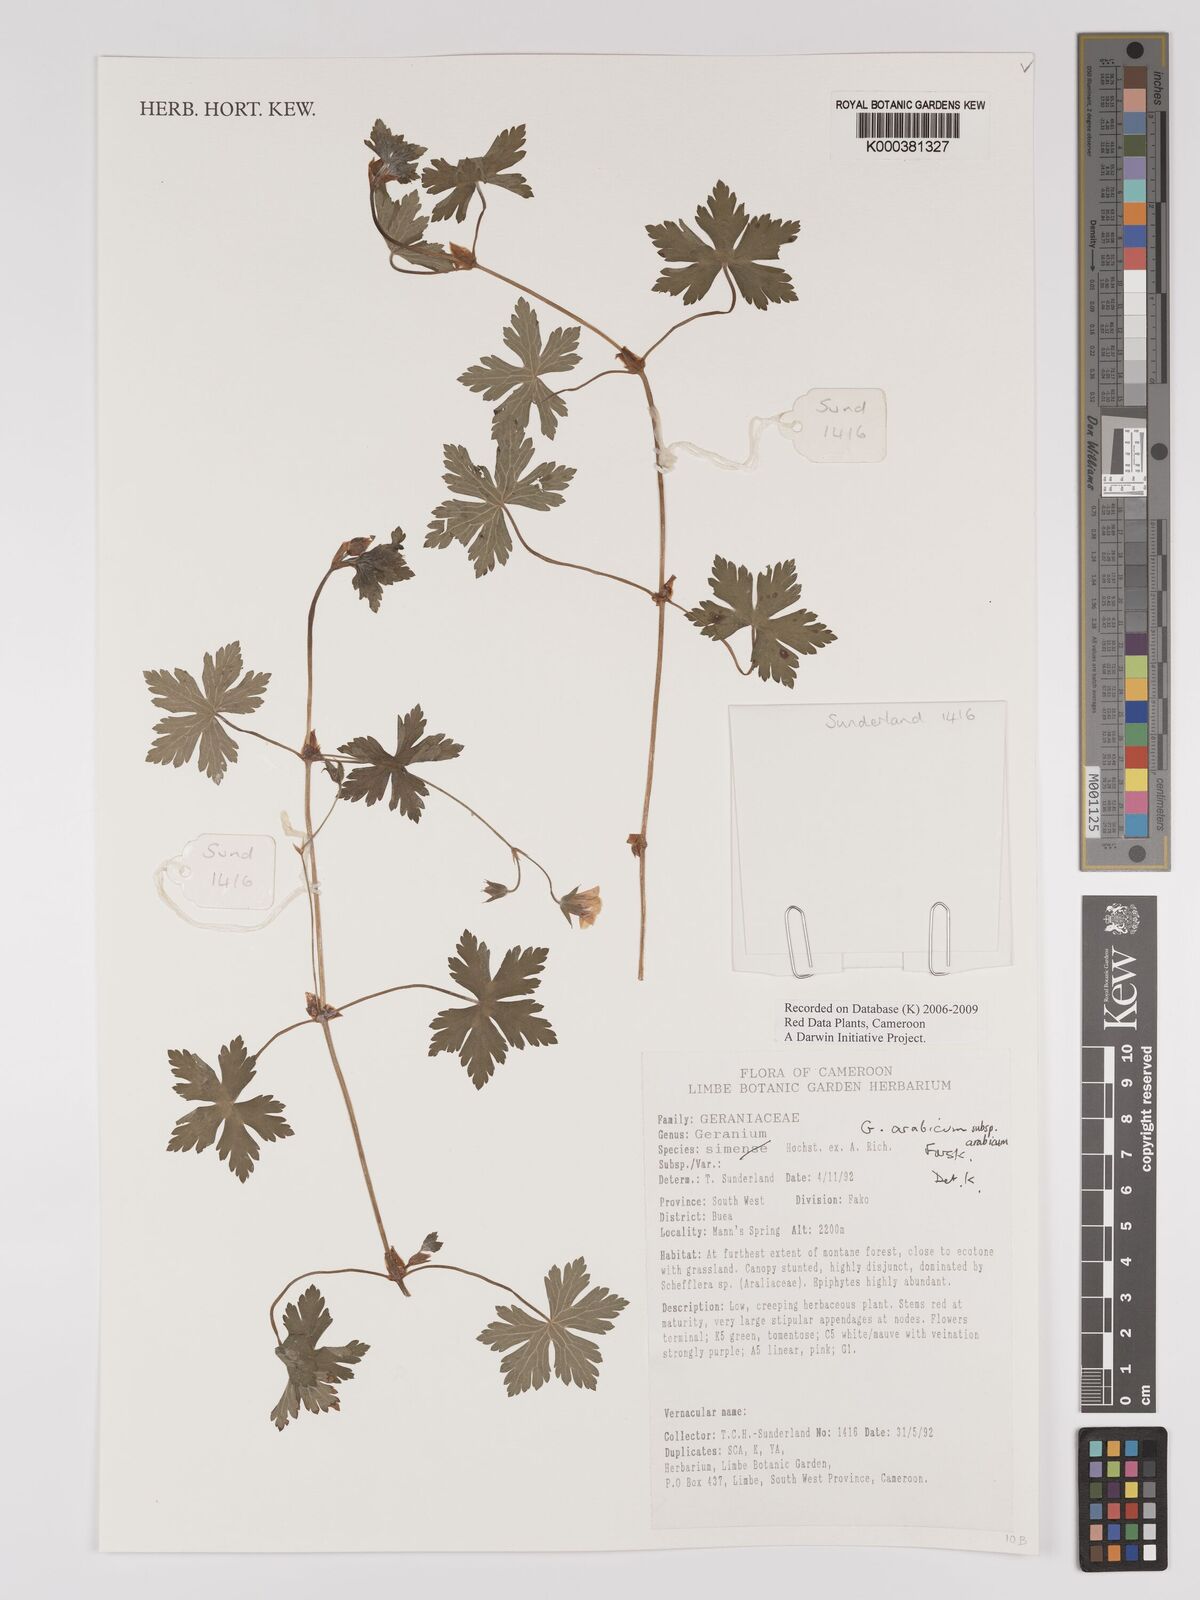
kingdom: Plantae
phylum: Tracheophyta
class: Magnoliopsida
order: Geraniales
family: Geraniaceae
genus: Geranium
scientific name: Geranium arabicum
